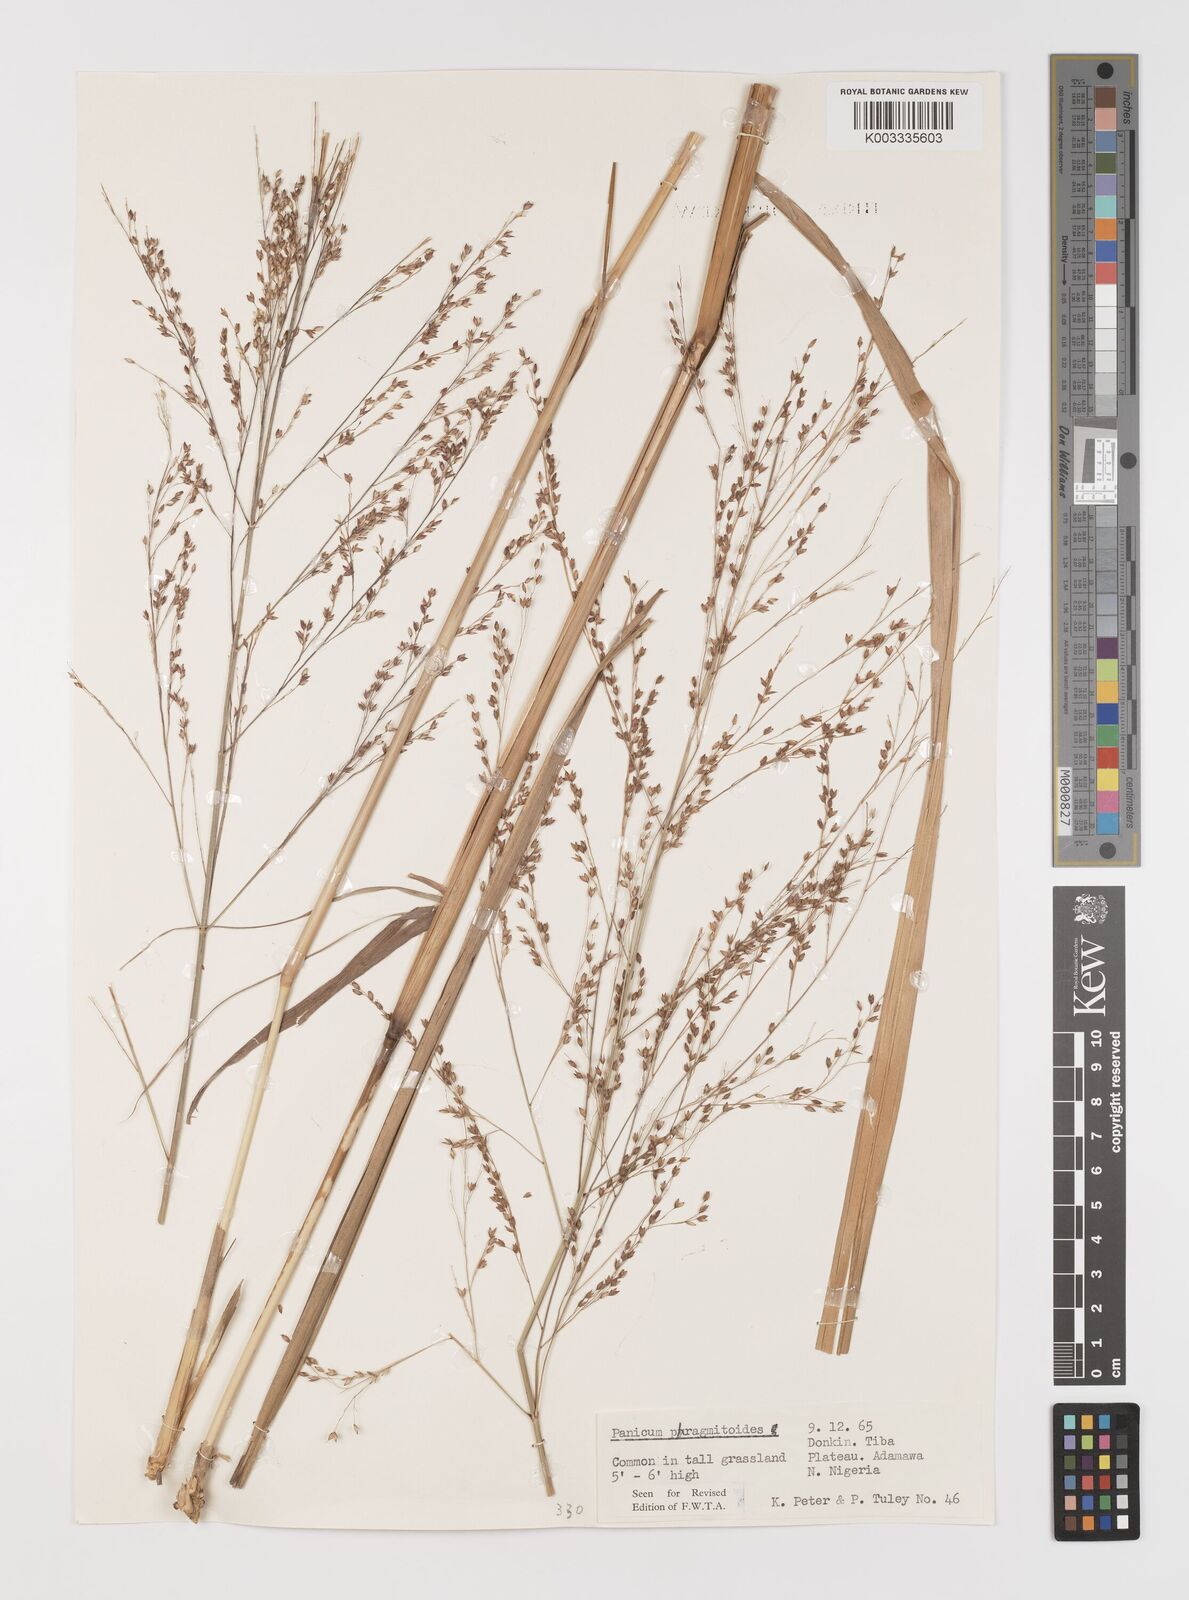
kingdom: Plantae
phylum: Tracheophyta
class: Liliopsida
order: Poales
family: Poaceae
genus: Panicum
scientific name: Panicum phragmitoides
